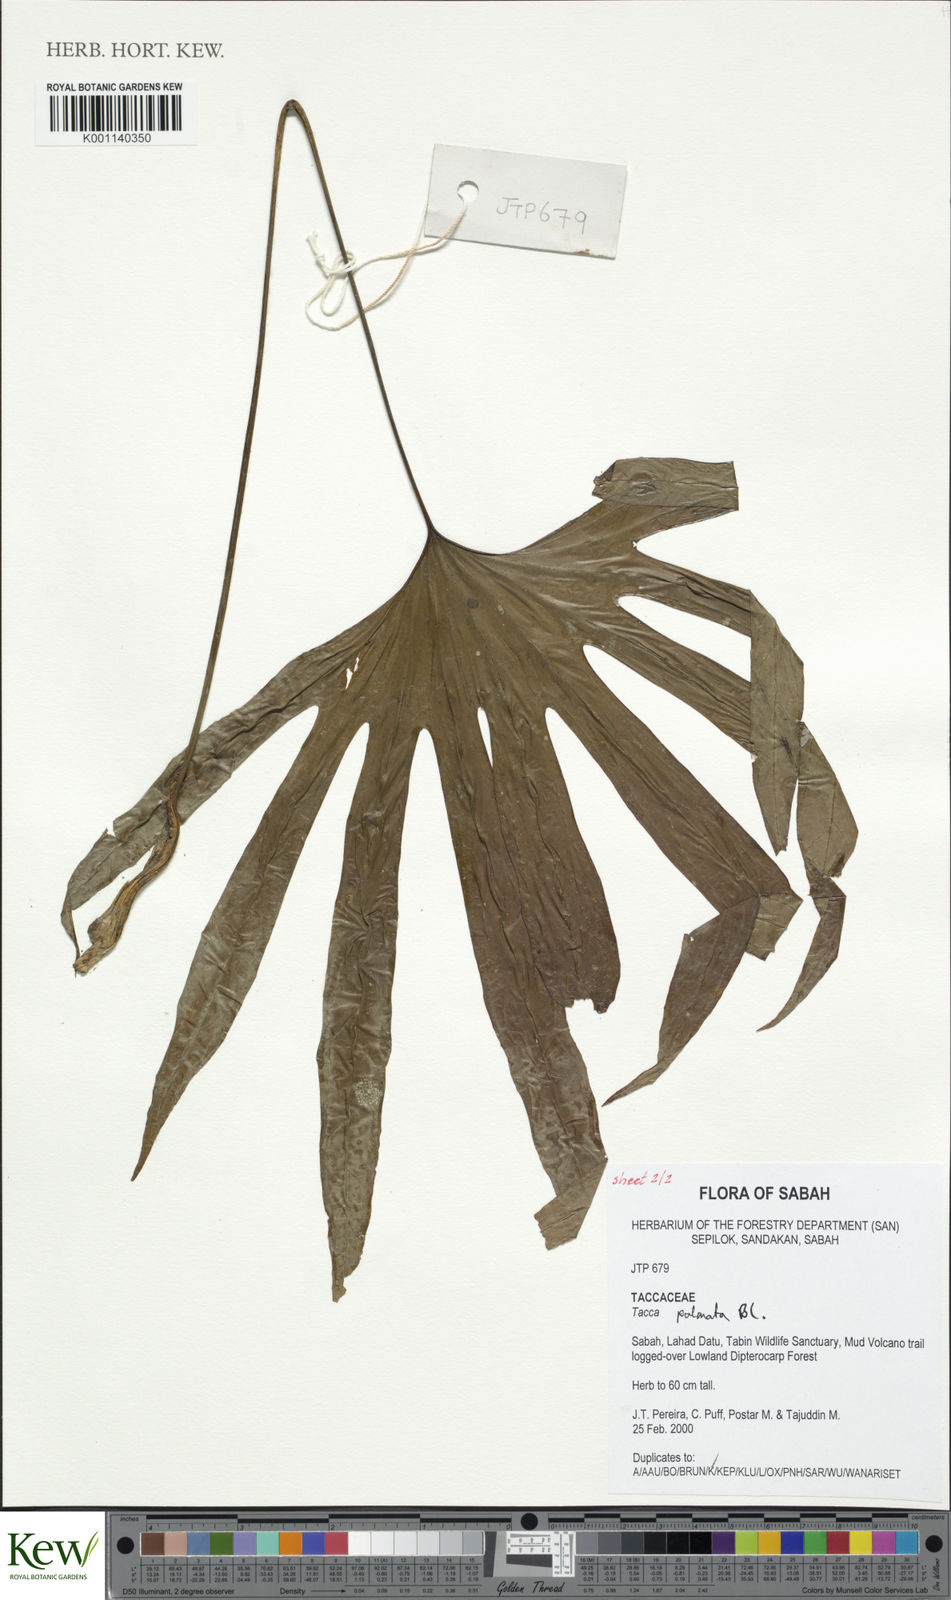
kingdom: Plantae
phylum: Tracheophyta
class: Liliopsida
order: Dioscoreales
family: Dioscoreaceae
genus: Tacca
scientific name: Tacca palmata
